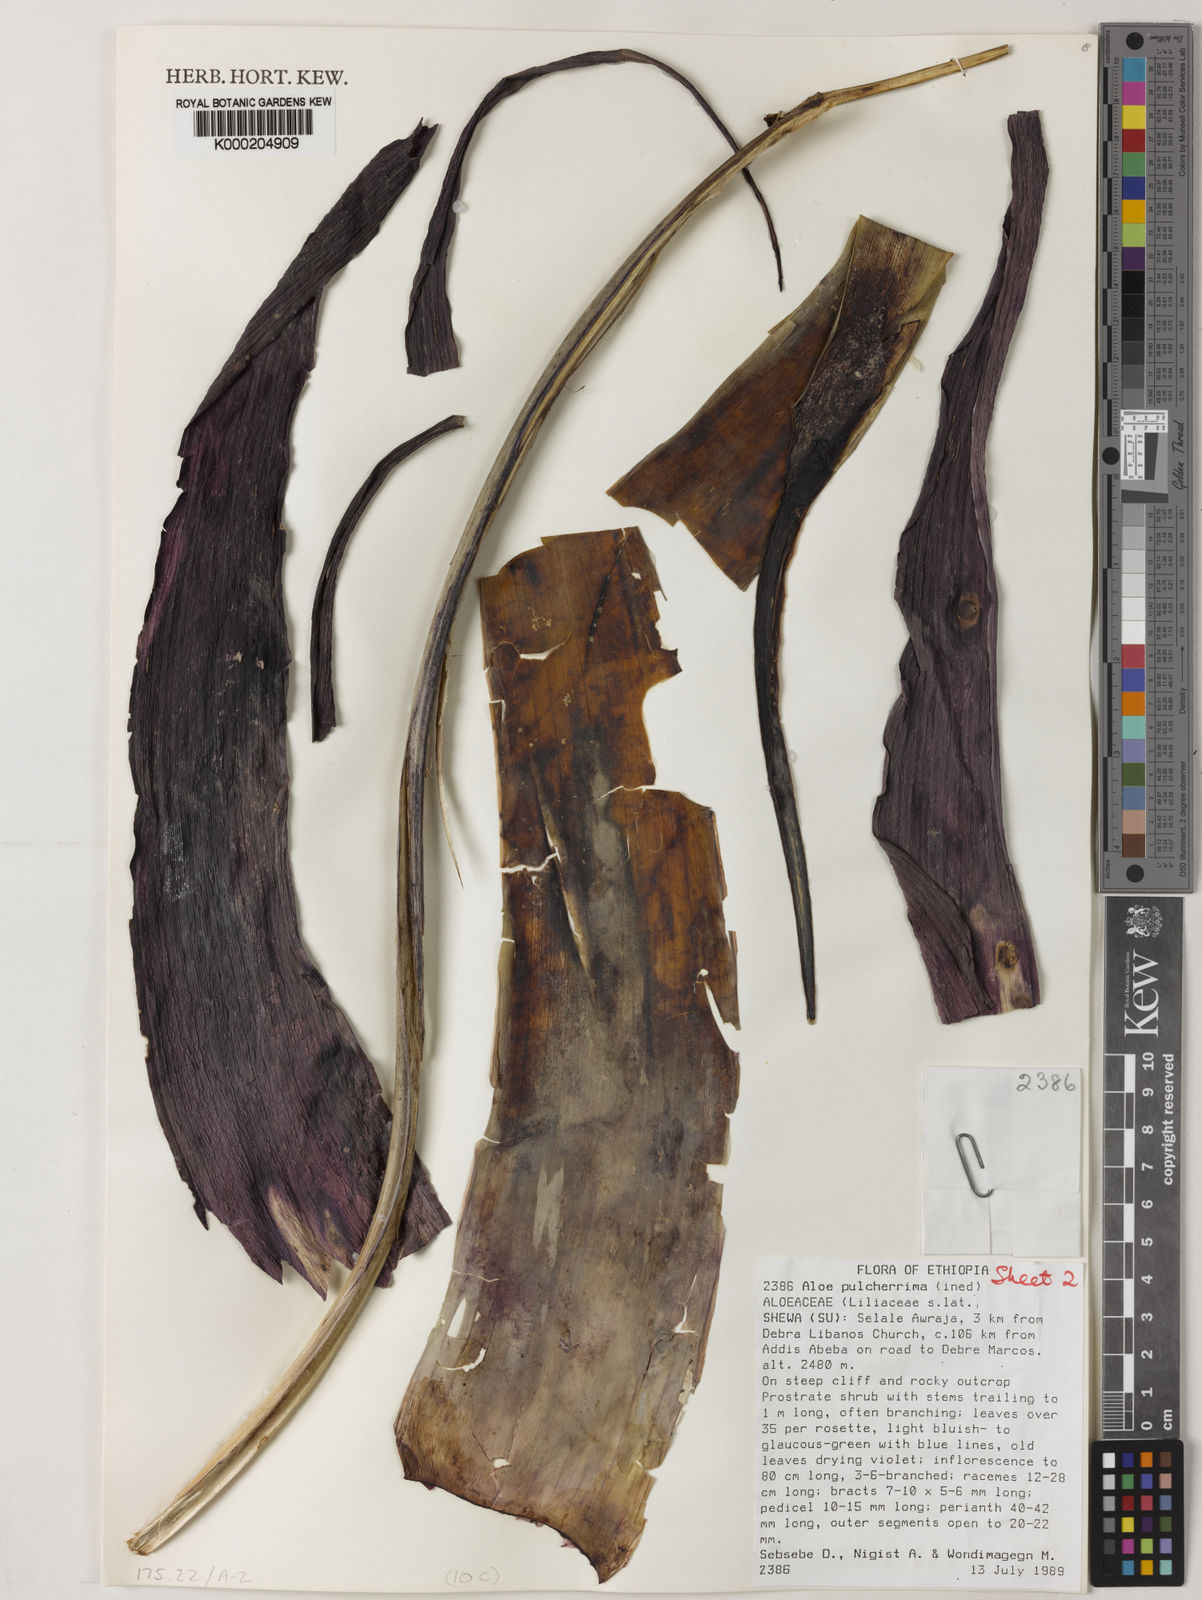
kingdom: Plantae
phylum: Tracheophyta
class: Liliopsida
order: Asparagales
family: Asphodelaceae
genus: Aloe
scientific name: Aloe pulcherrima
